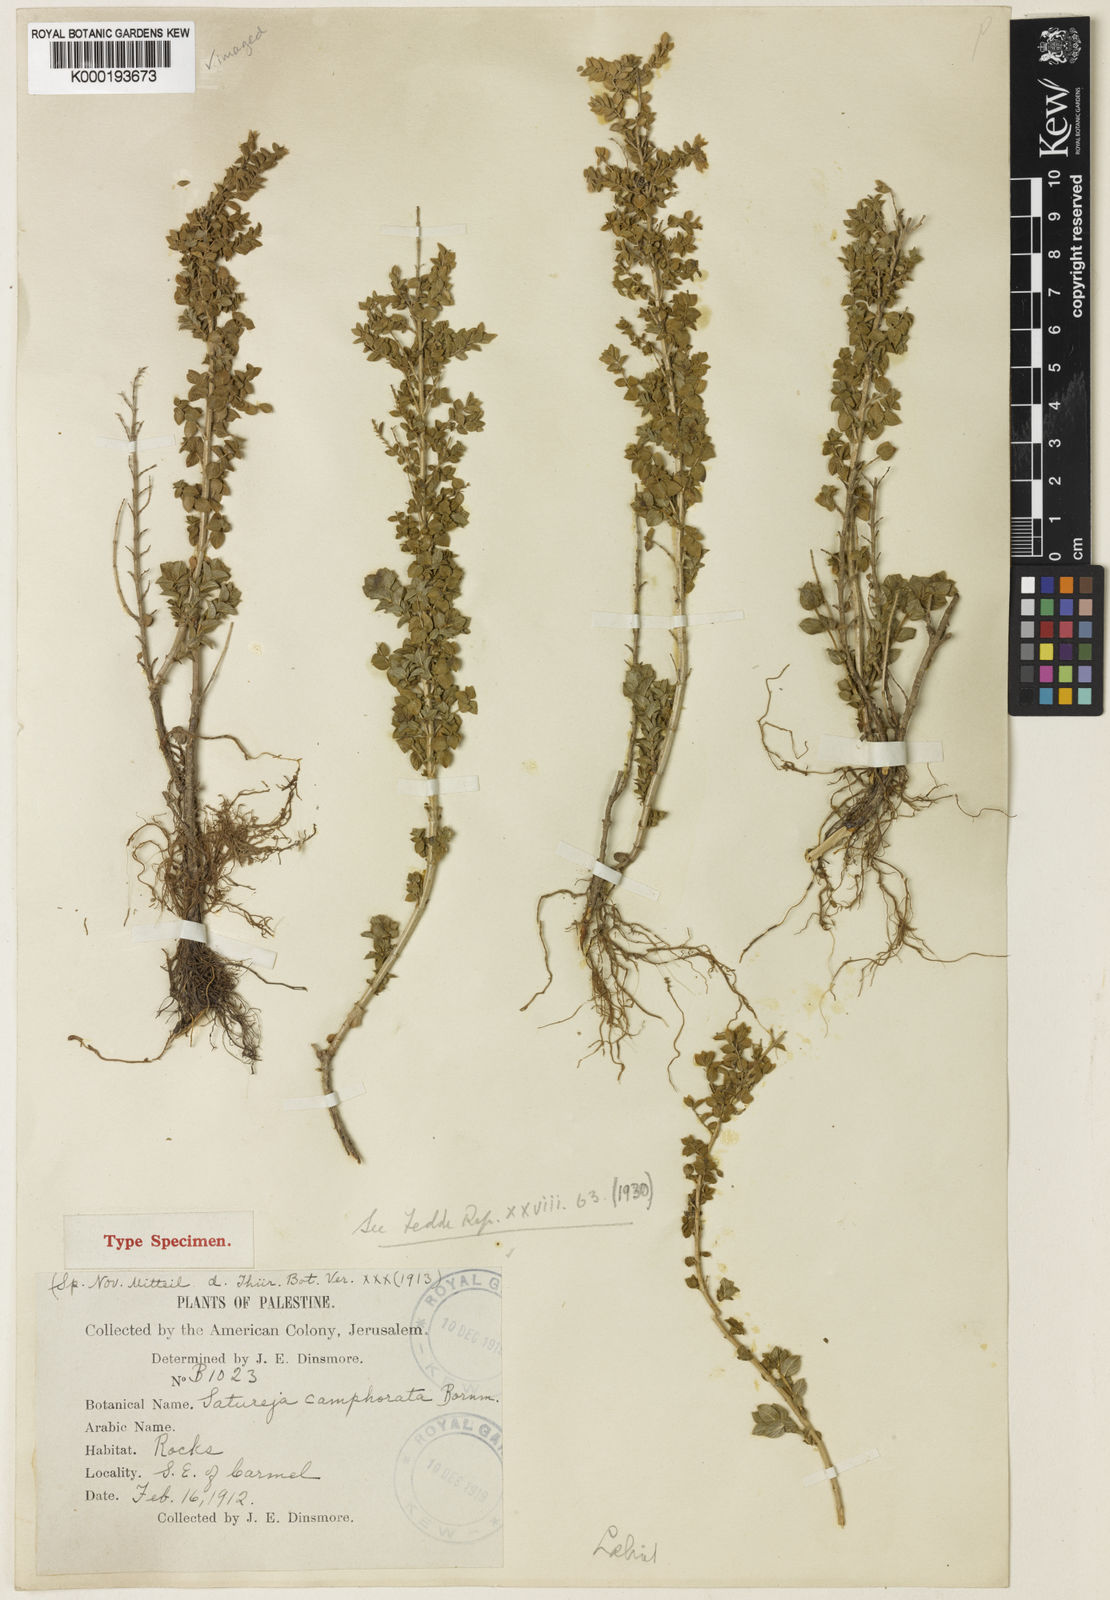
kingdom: Plantae
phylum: Tracheophyta
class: Magnoliopsida
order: Lamiales
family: Lamiaceae
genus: Origanum
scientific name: Origanum dayi
